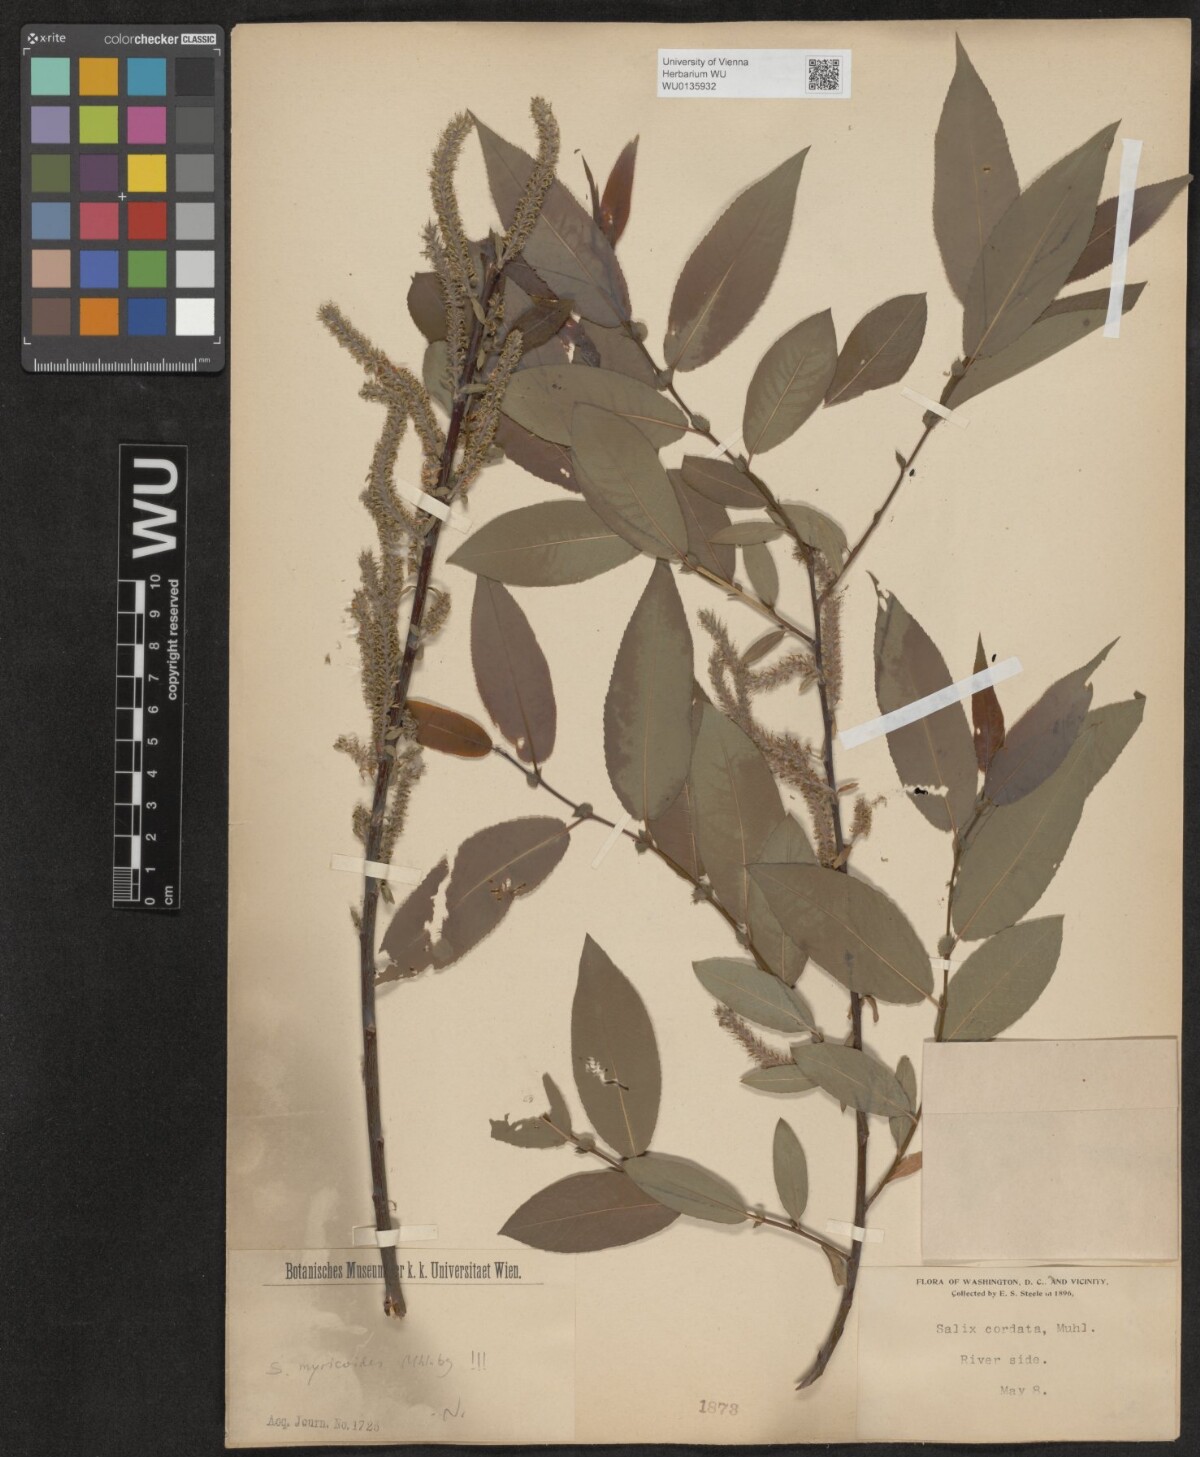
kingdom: Plantae
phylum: Tracheophyta
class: Magnoliopsida
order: Malpighiales
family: Salicaceae
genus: Salix
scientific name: Salix cordata
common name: Heart-leaf willow
